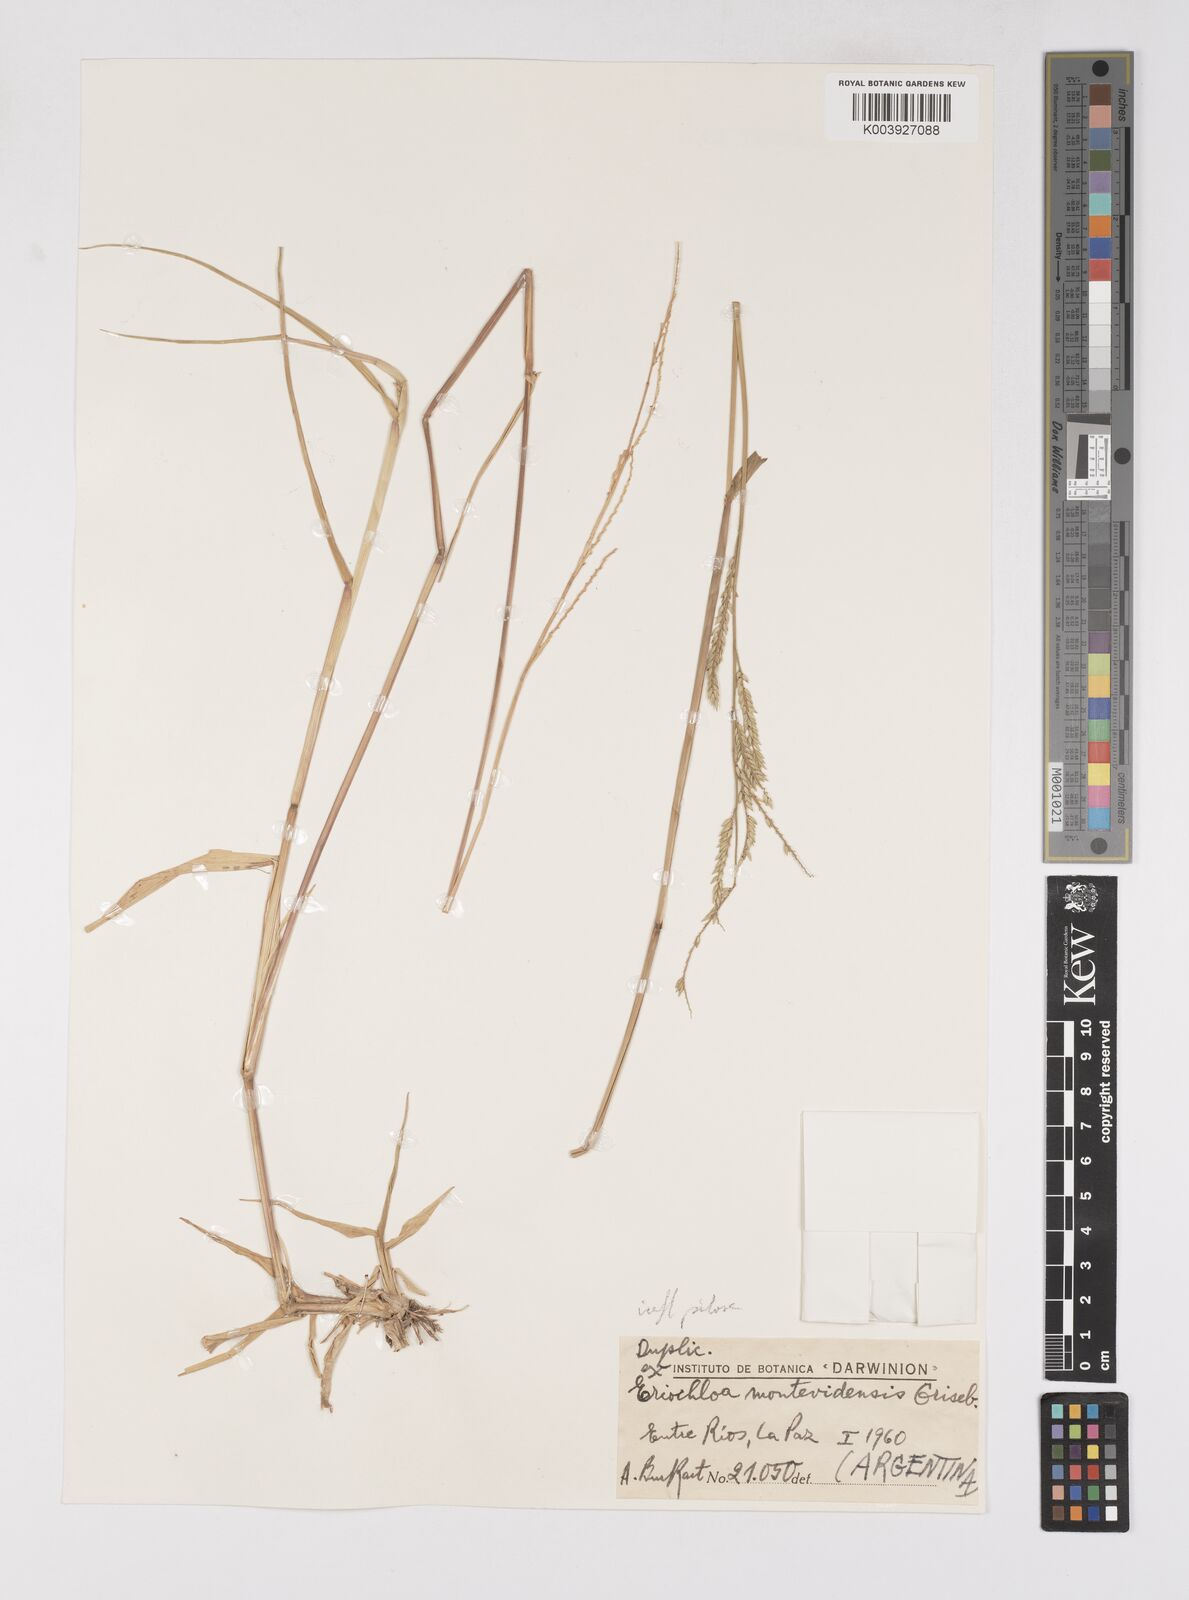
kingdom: Plantae
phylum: Tracheophyta
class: Liliopsida
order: Poales
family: Poaceae
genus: Eriochloa
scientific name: Eriochloa punctata
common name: Louisiana cupgrass
